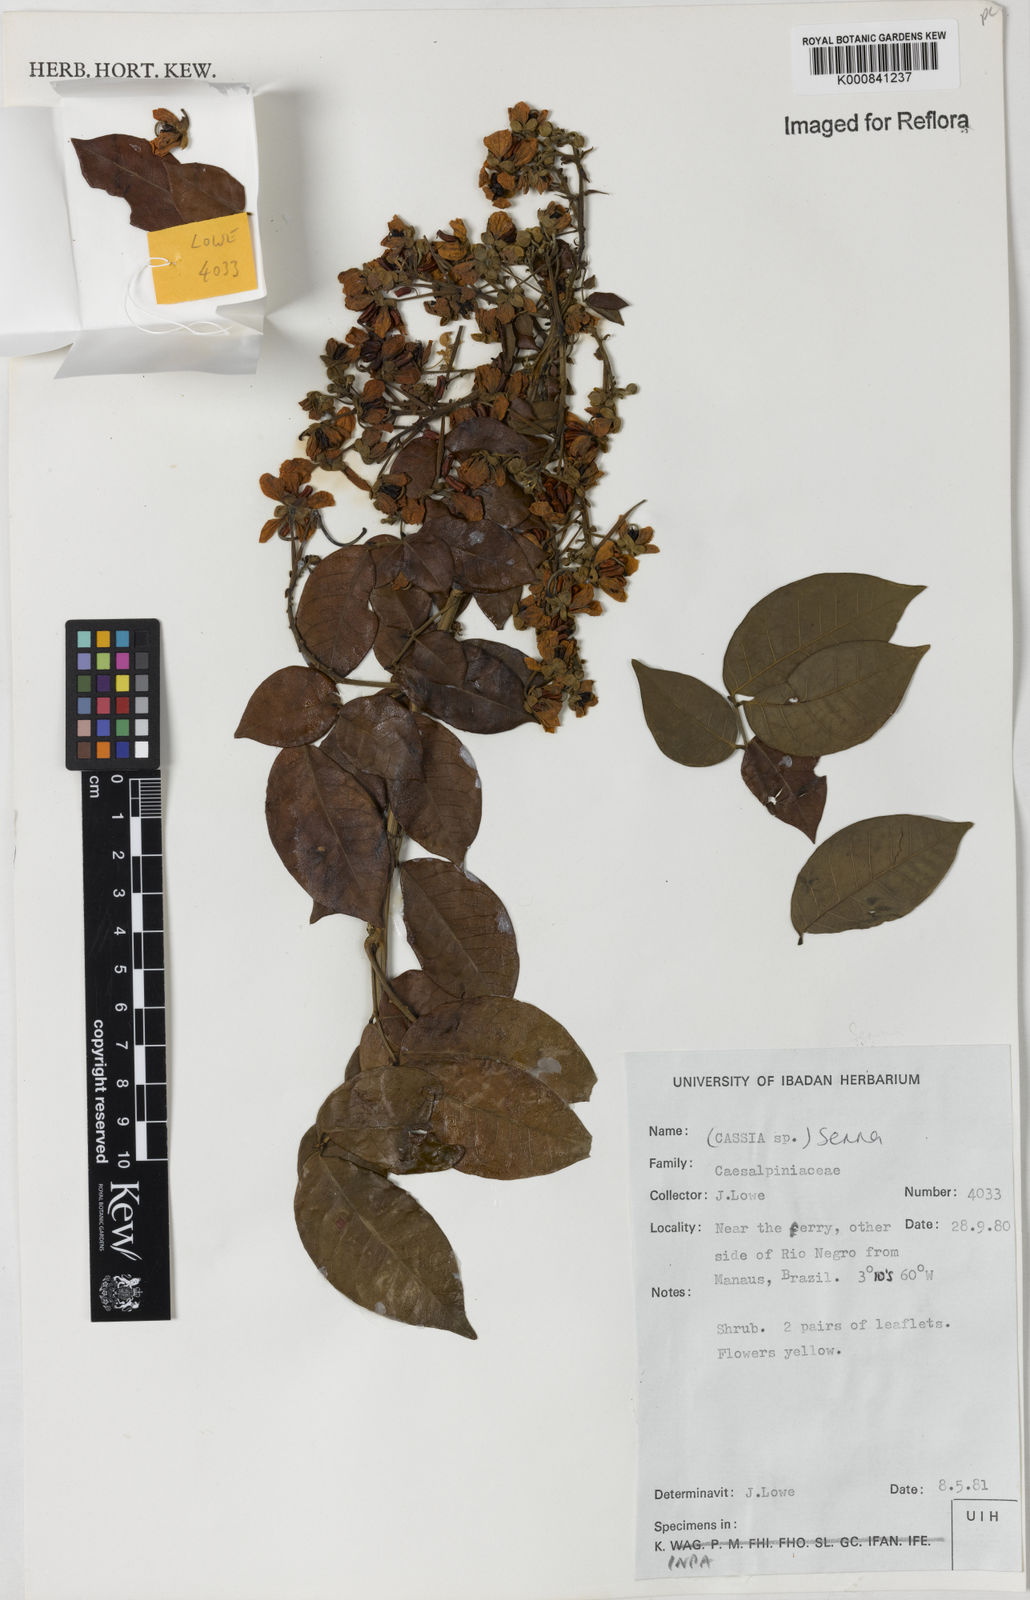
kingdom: Plantae
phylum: Tracheophyta
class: Magnoliopsida
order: Fabales
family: Fabaceae
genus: Senna
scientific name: Senna quinquangulata
